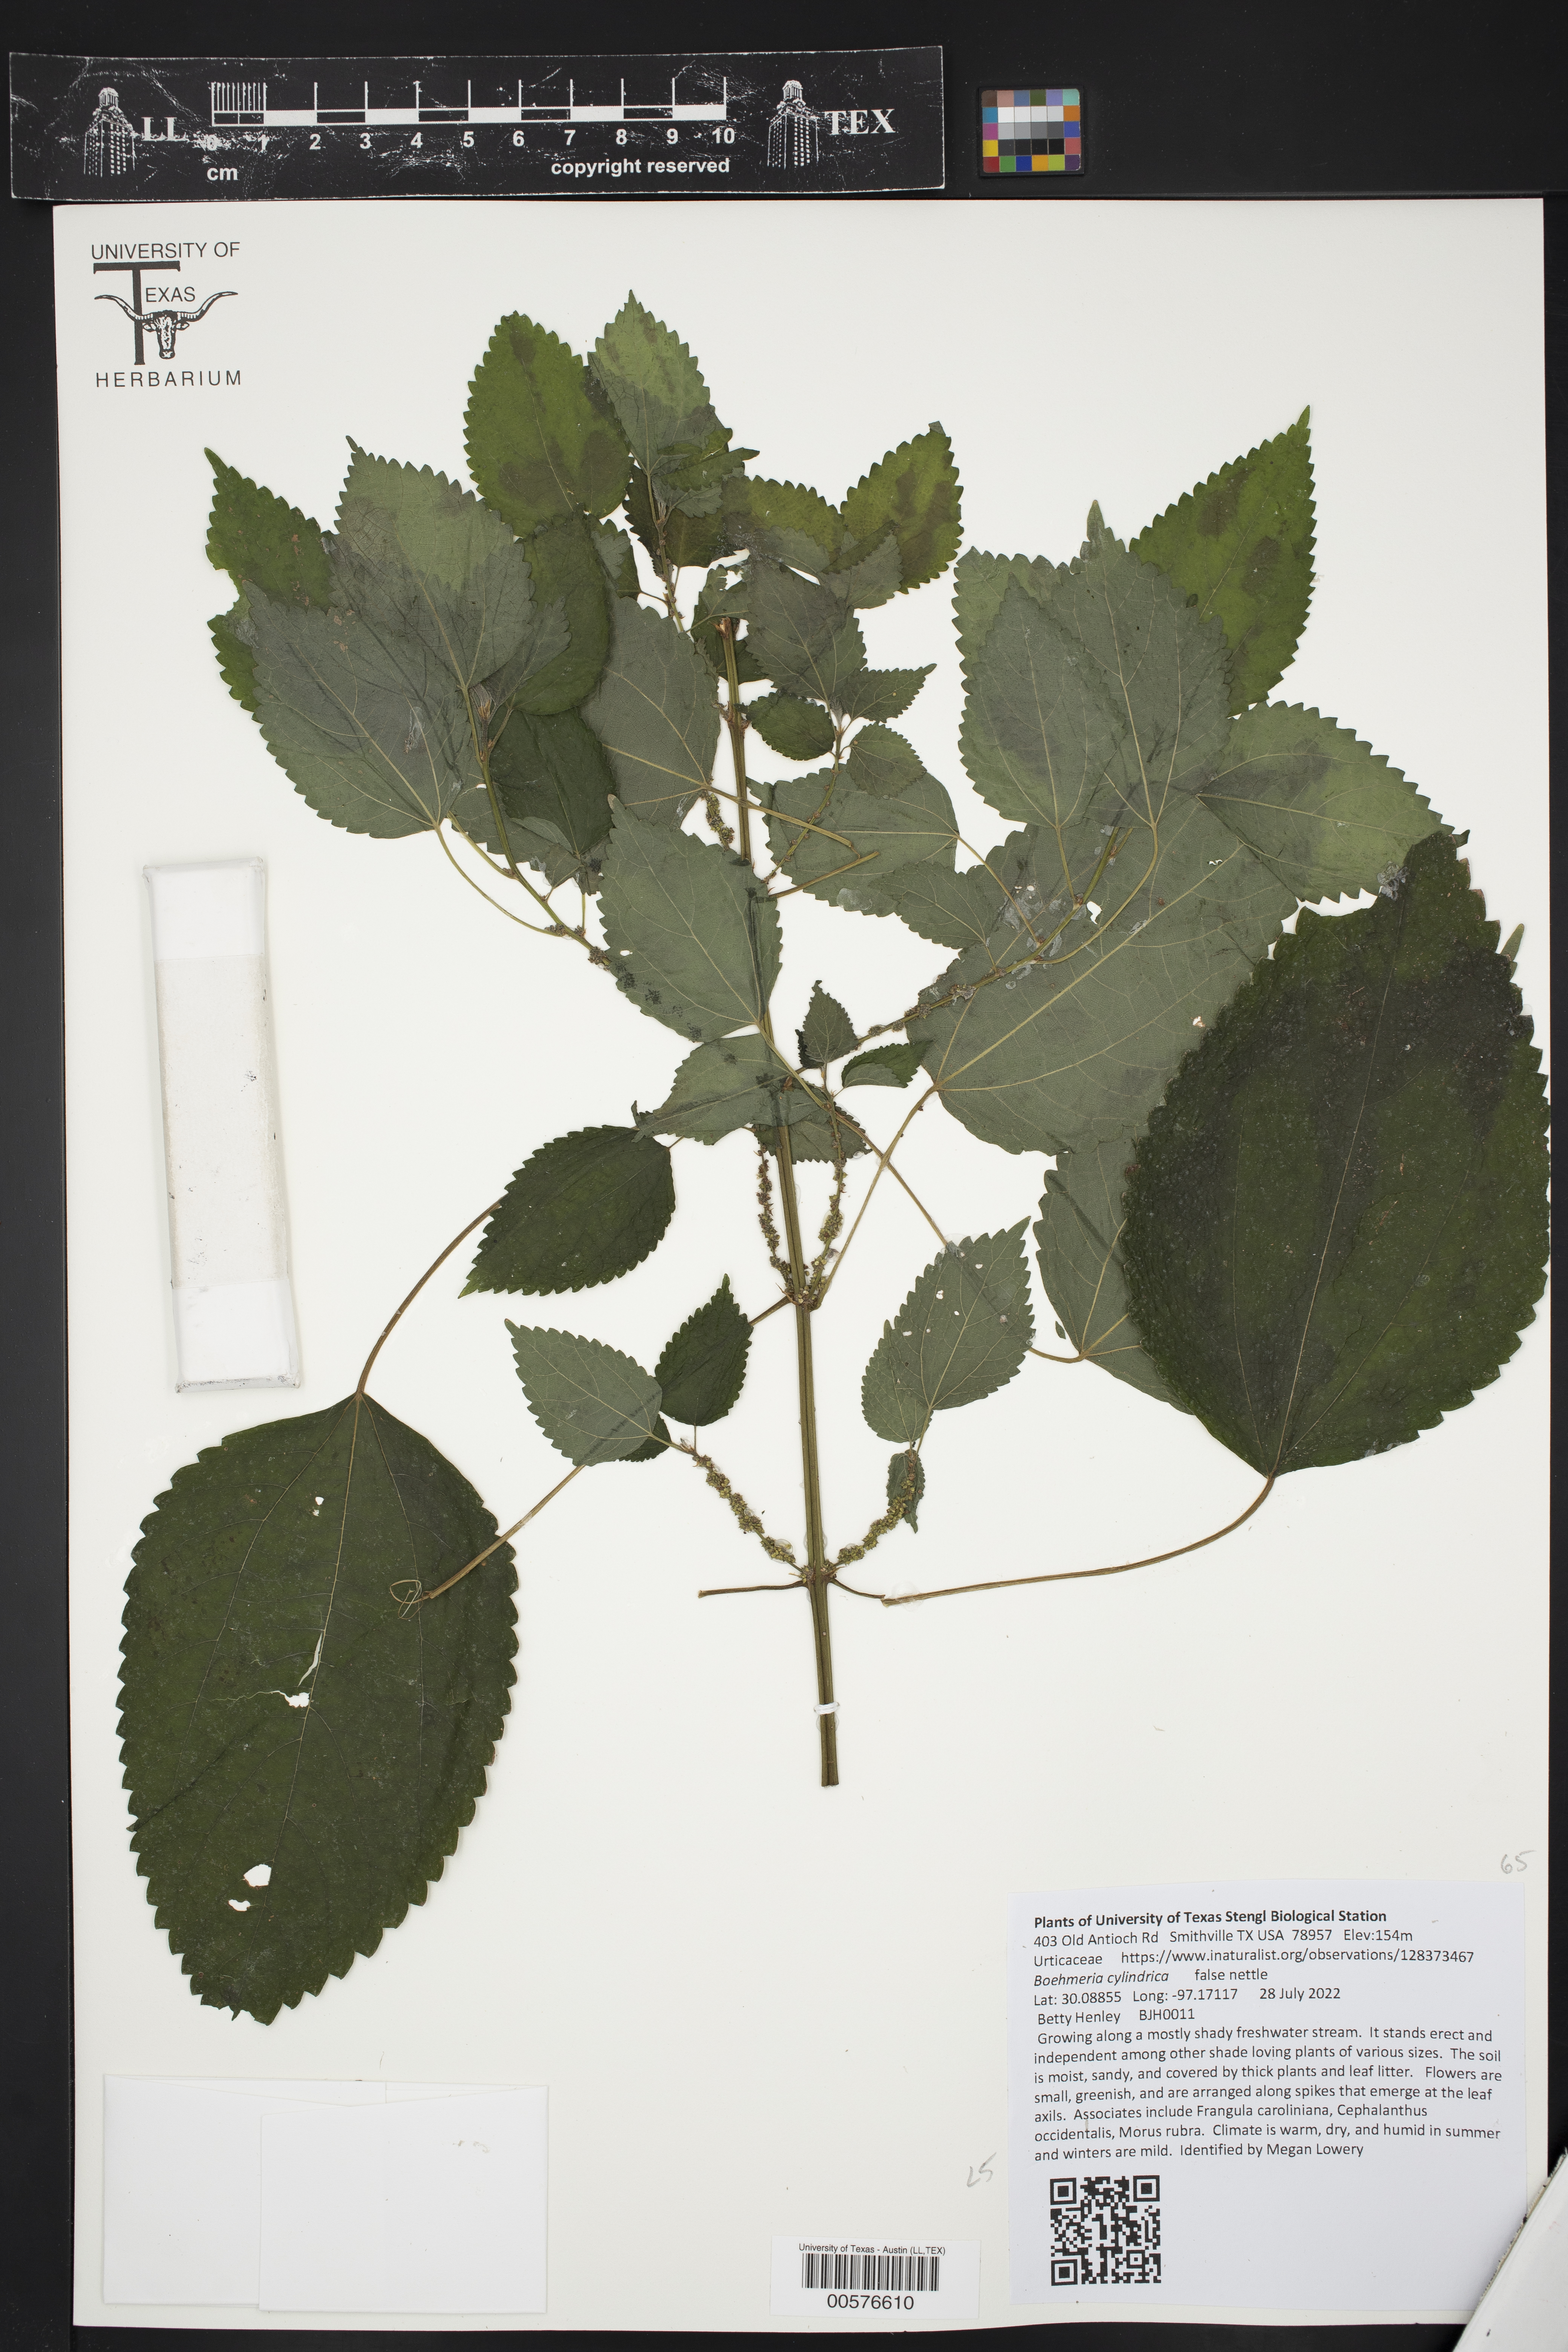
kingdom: Plantae
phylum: Tracheophyta
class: Magnoliopsida
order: Rosales
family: Urticaceae
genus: Boehmeria
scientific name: Boehmeria cylindrica
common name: Bog-hemp
